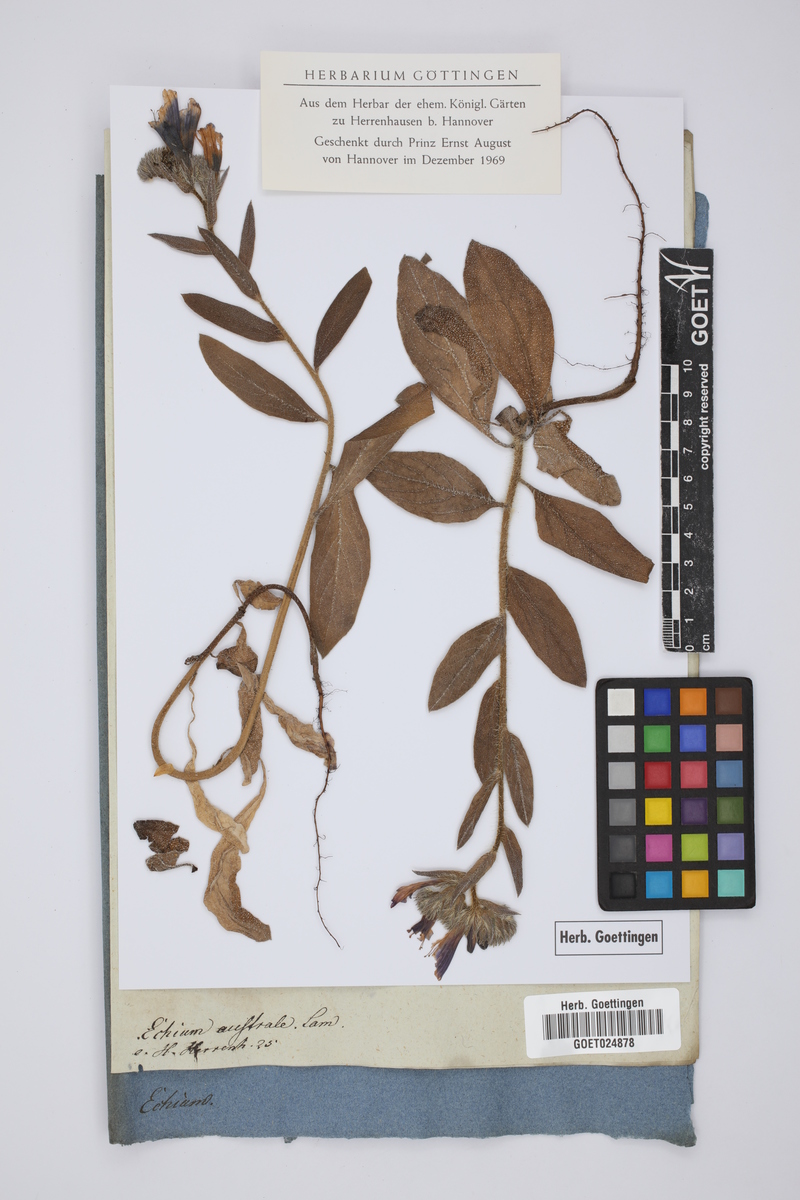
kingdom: Plantae
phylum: Tracheophyta
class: Magnoliopsida
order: Boraginales
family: Boraginaceae
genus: Echium
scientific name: Echium creticum
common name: Cretan viper's bugloss
